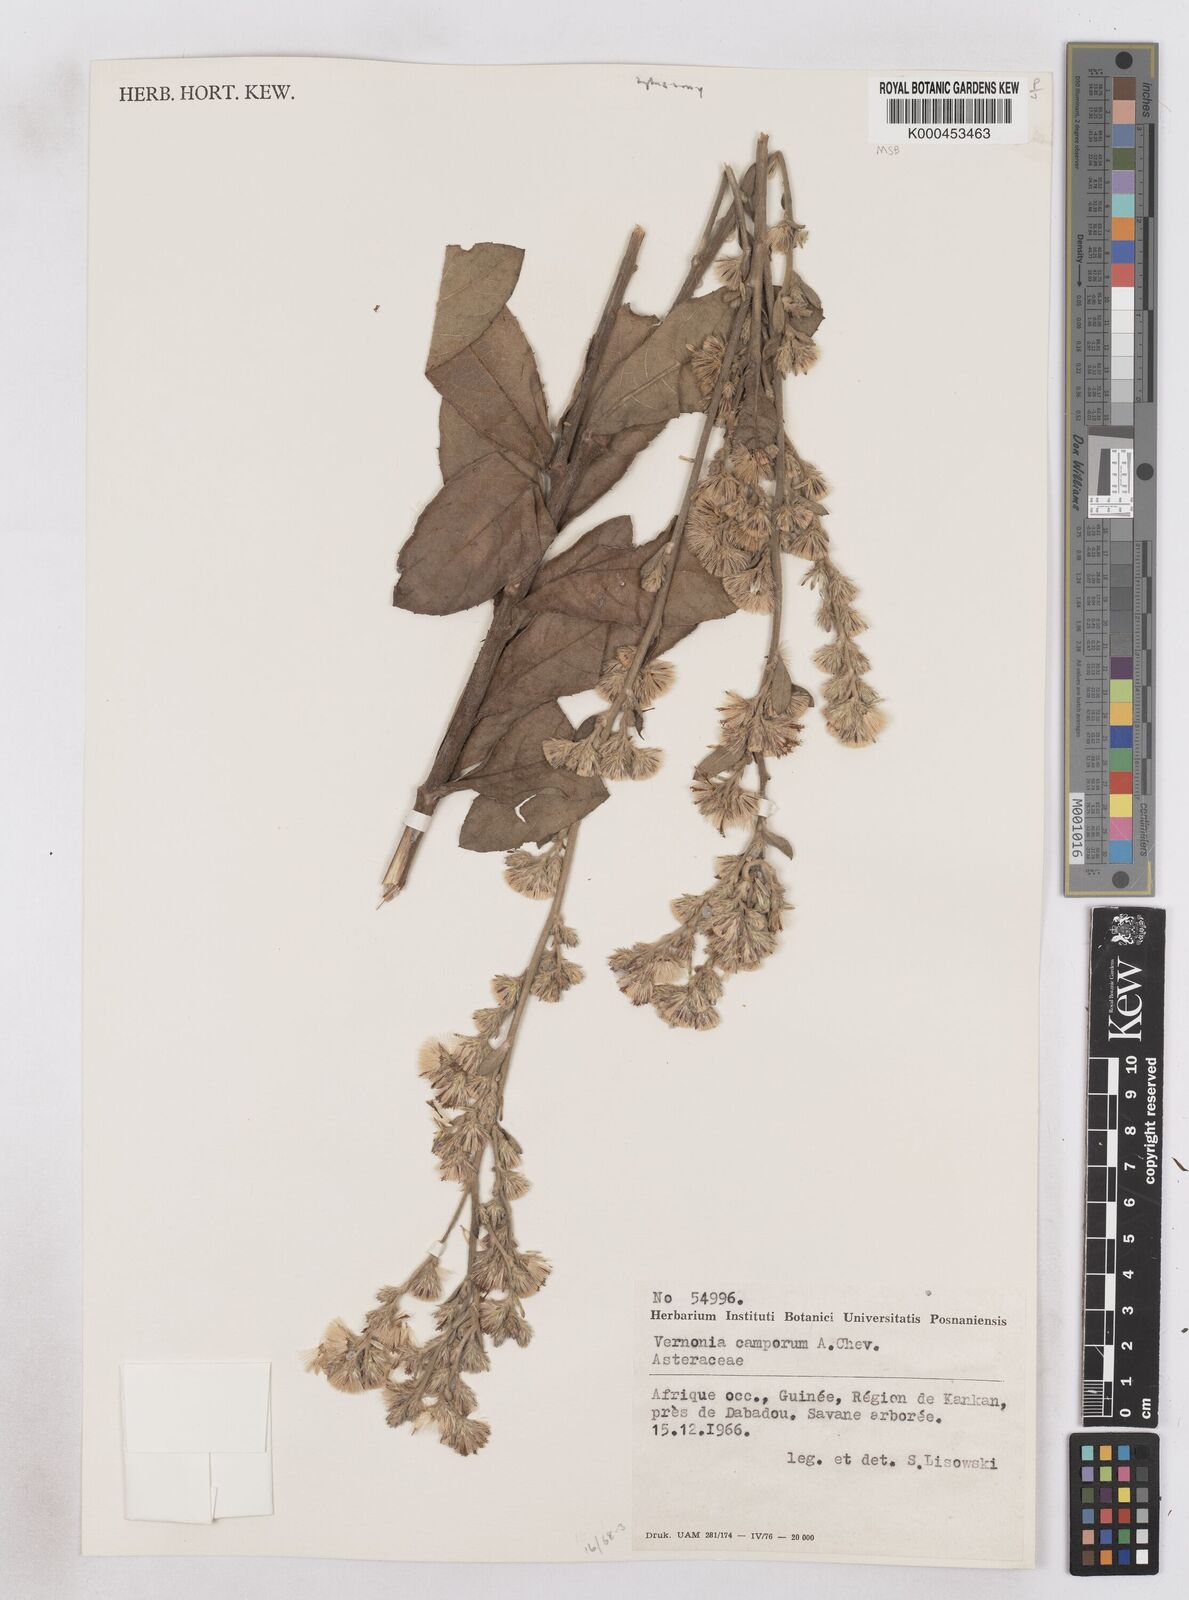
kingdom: Plantae
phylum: Tracheophyta
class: Magnoliopsida
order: Asterales
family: Asteraceae
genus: Vernoniastrum
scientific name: Vernoniastrum camporum
